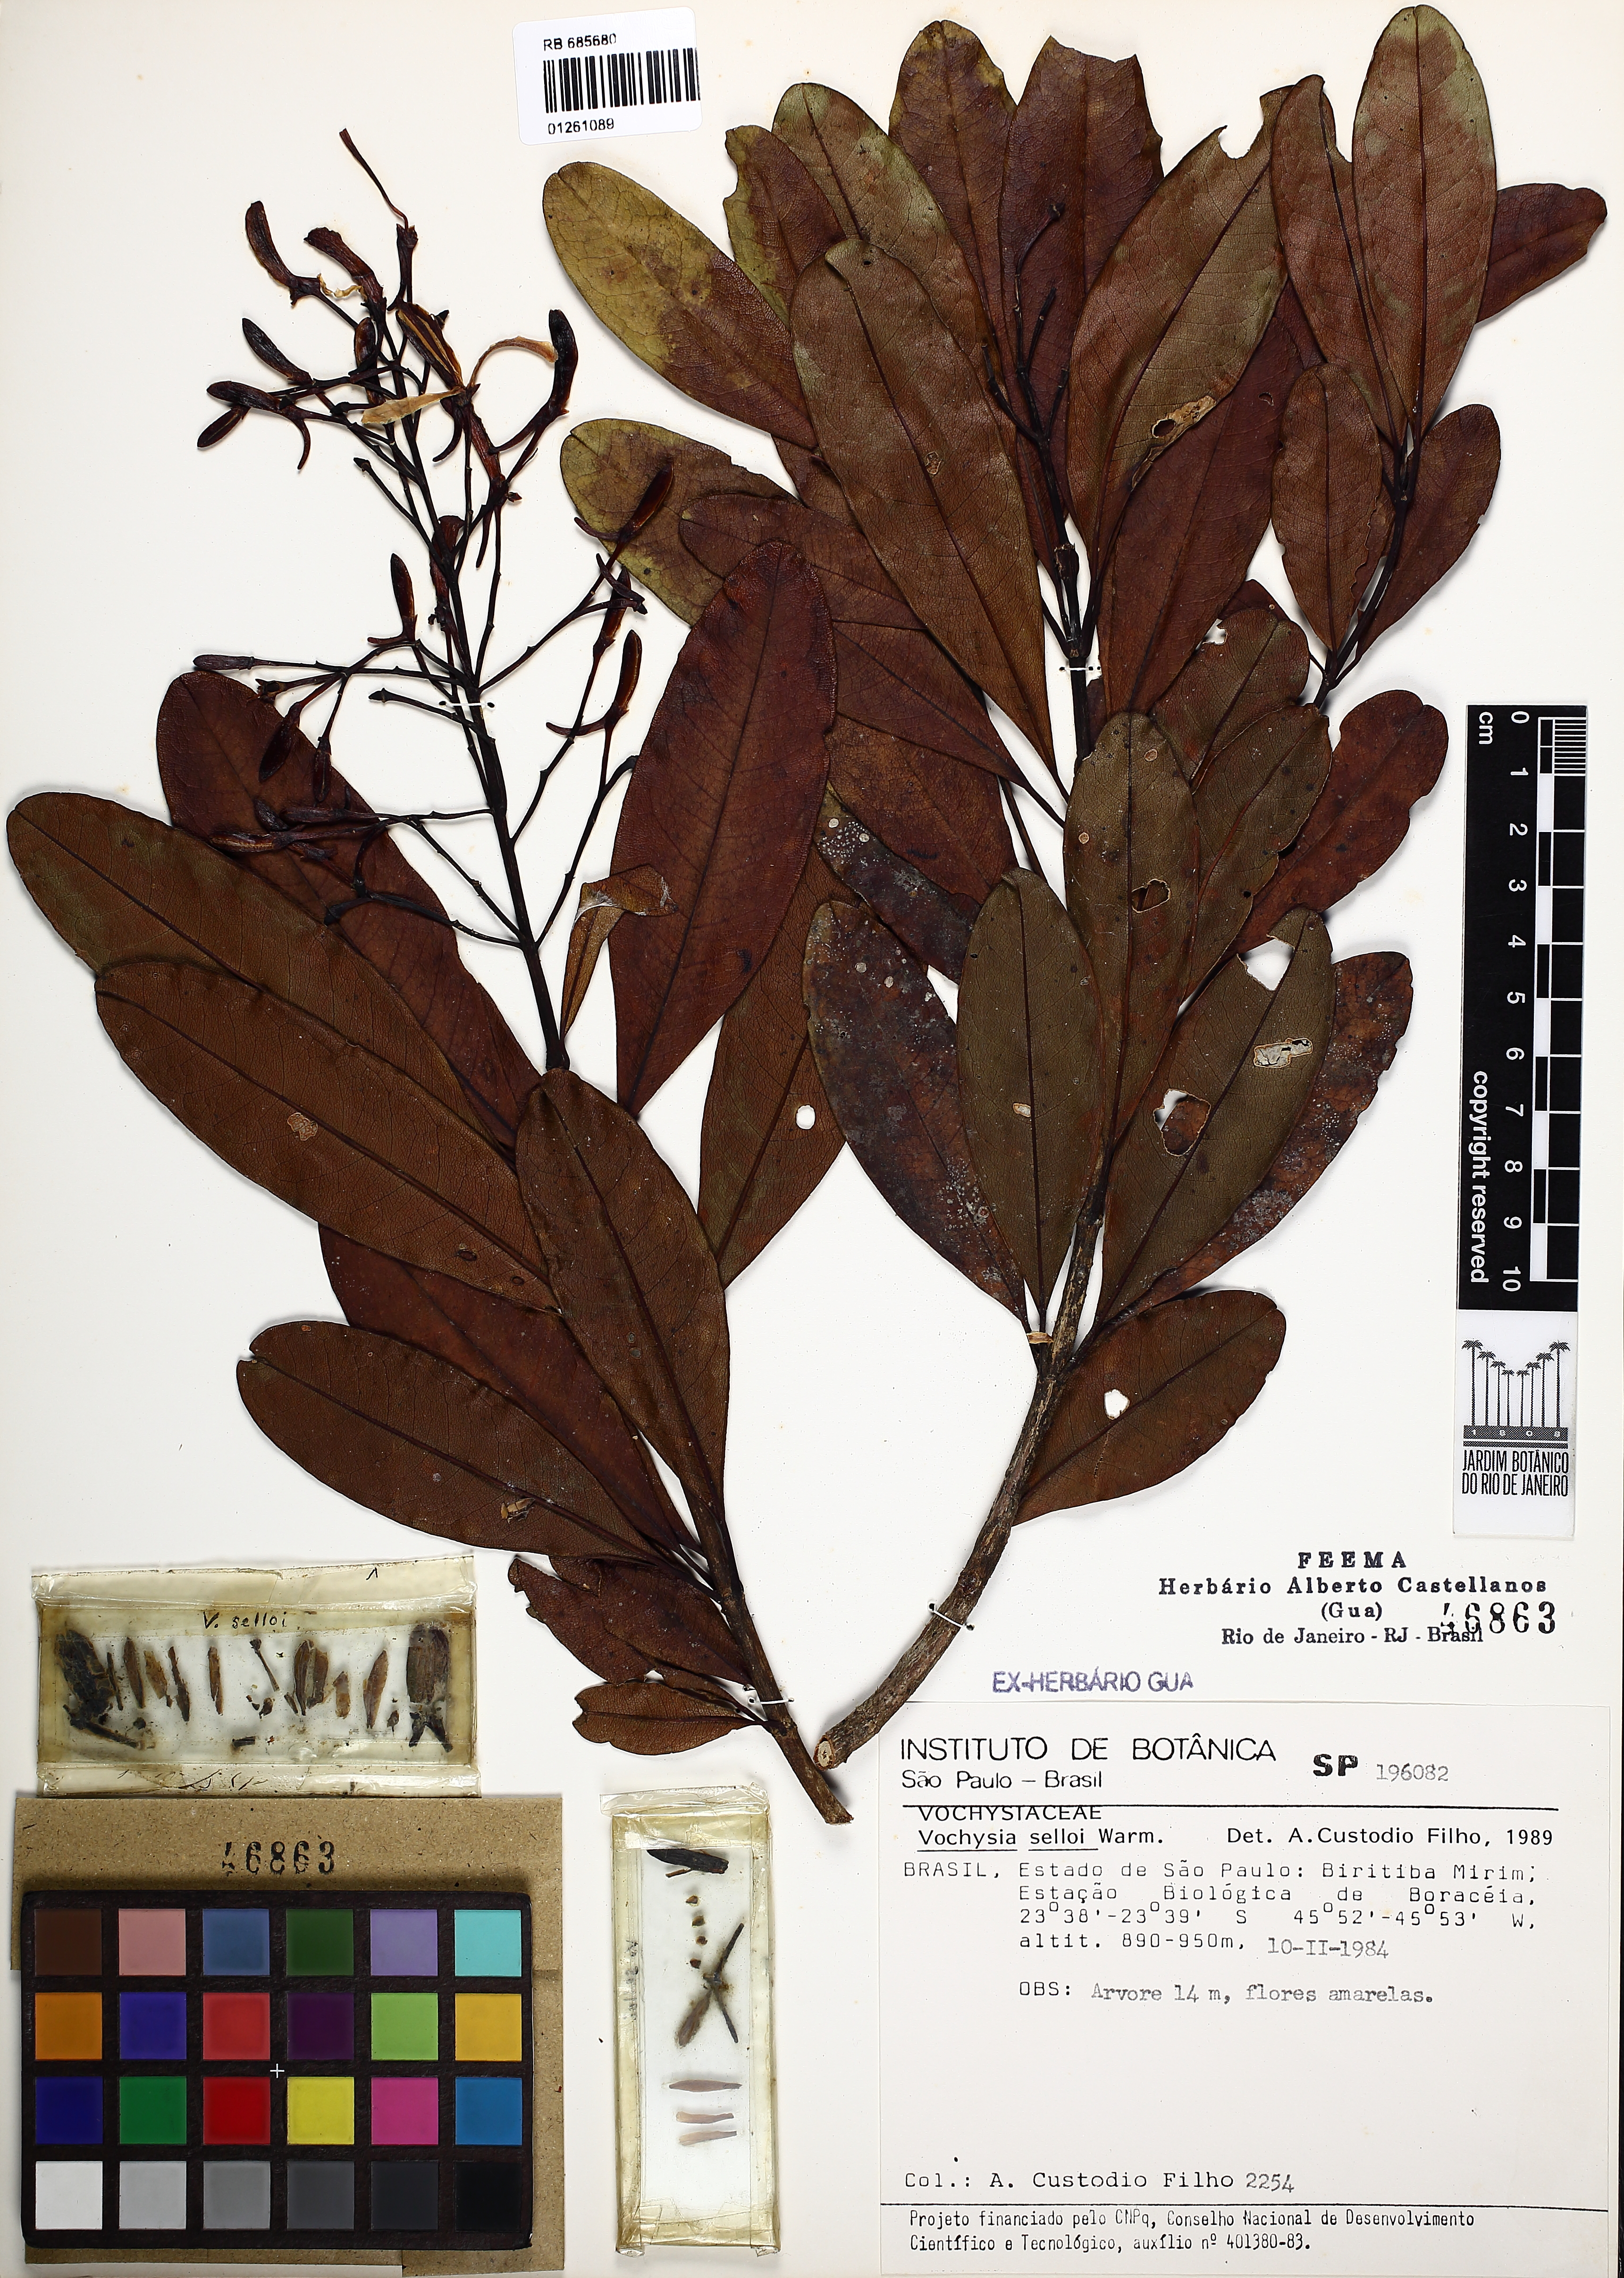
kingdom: Plantae
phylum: Tracheophyta
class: Magnoliopsida
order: Myrtales
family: Vochysiaceae
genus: Vochysia
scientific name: Vochysia selloi
